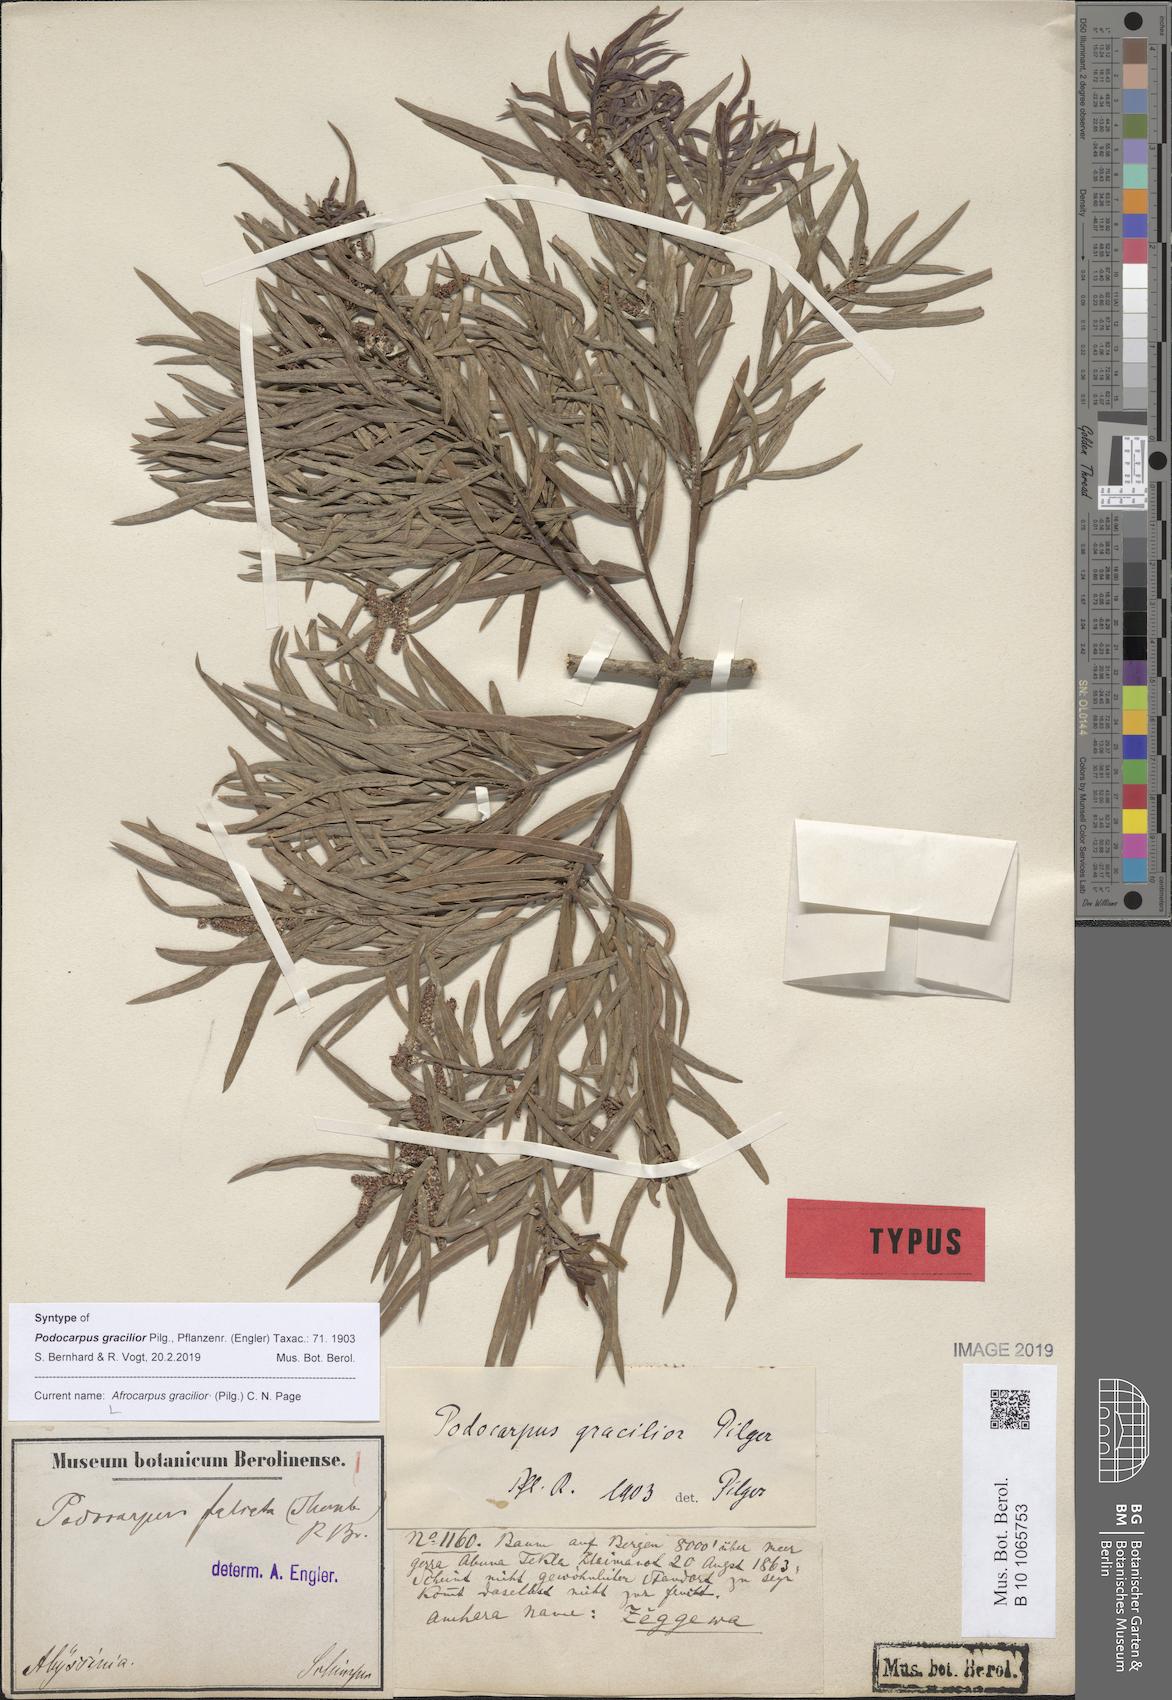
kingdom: Plantae
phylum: Tracheophyta
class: Pinopsida
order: Pinales
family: Podocarpaceae
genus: Afrocarpus
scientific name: Afrocarpus gracilior
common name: East african yellowwood
